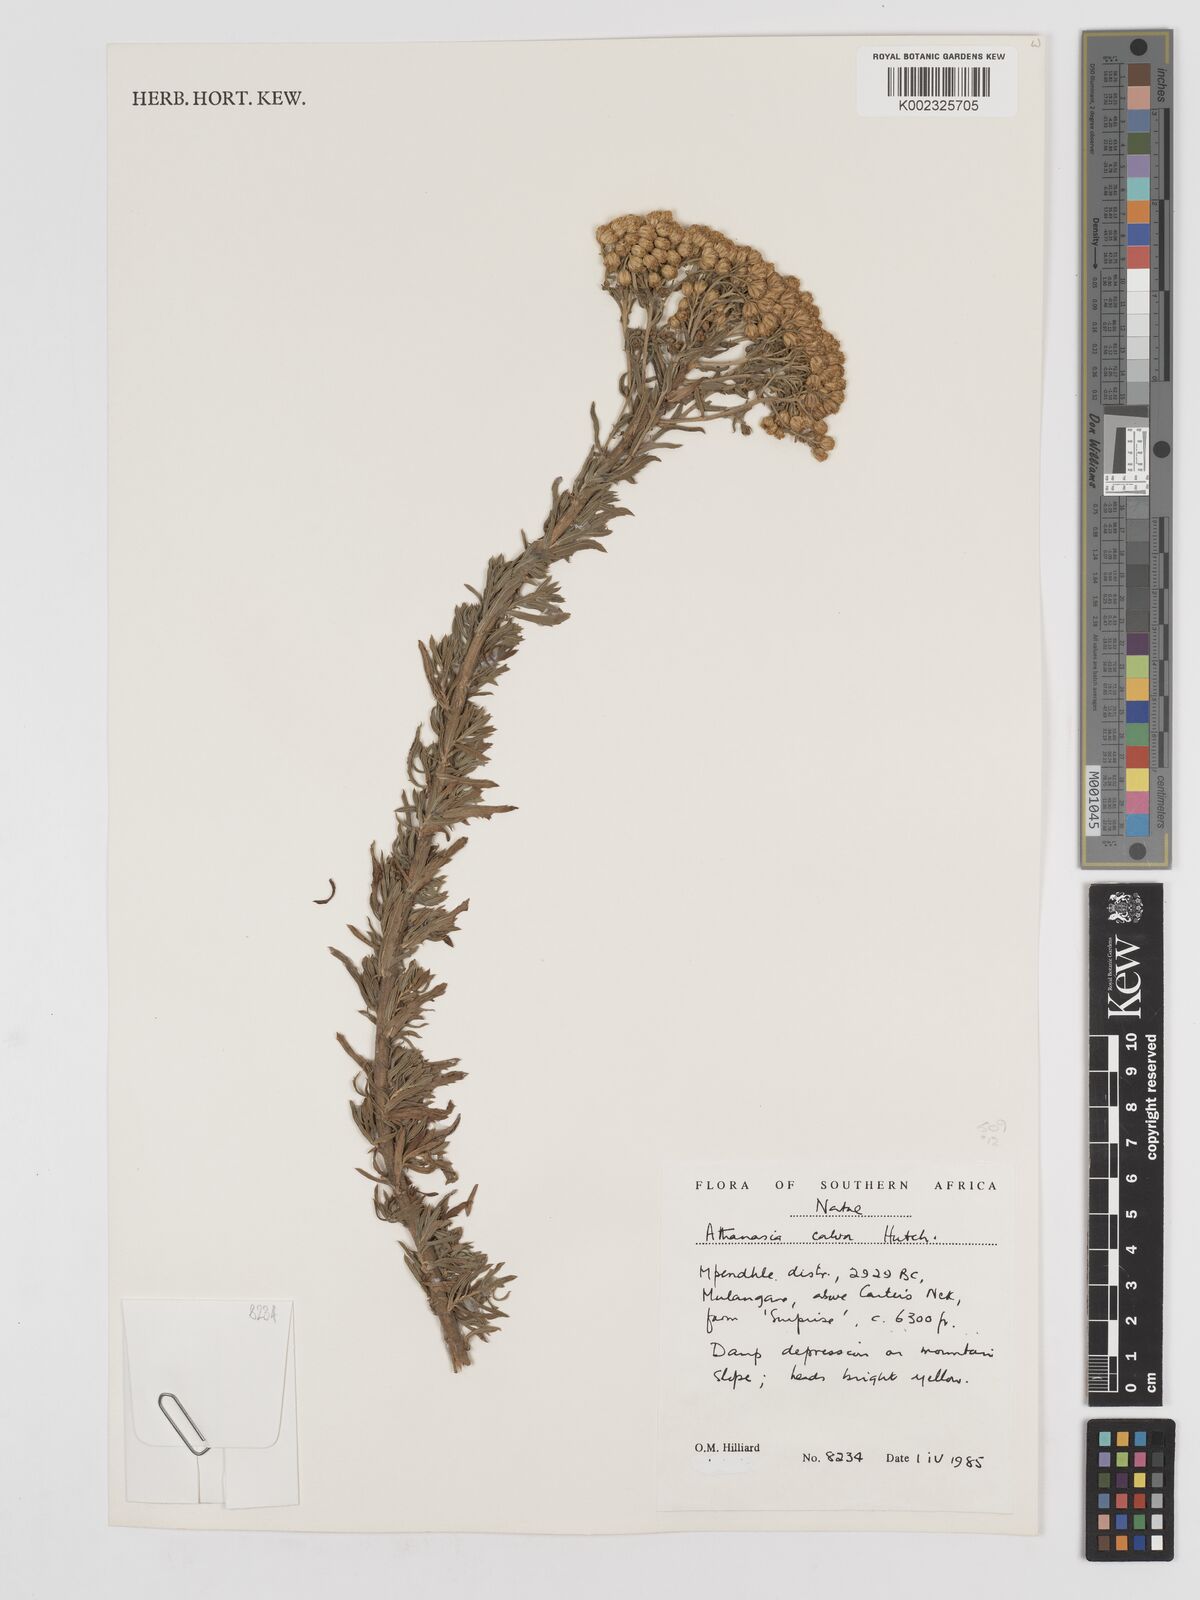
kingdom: Plantae
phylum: Tracheophyta
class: Magnoliopsida
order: Asterales
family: Asteraceae
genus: Inulanthera
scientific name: Inulanthera dregeana
